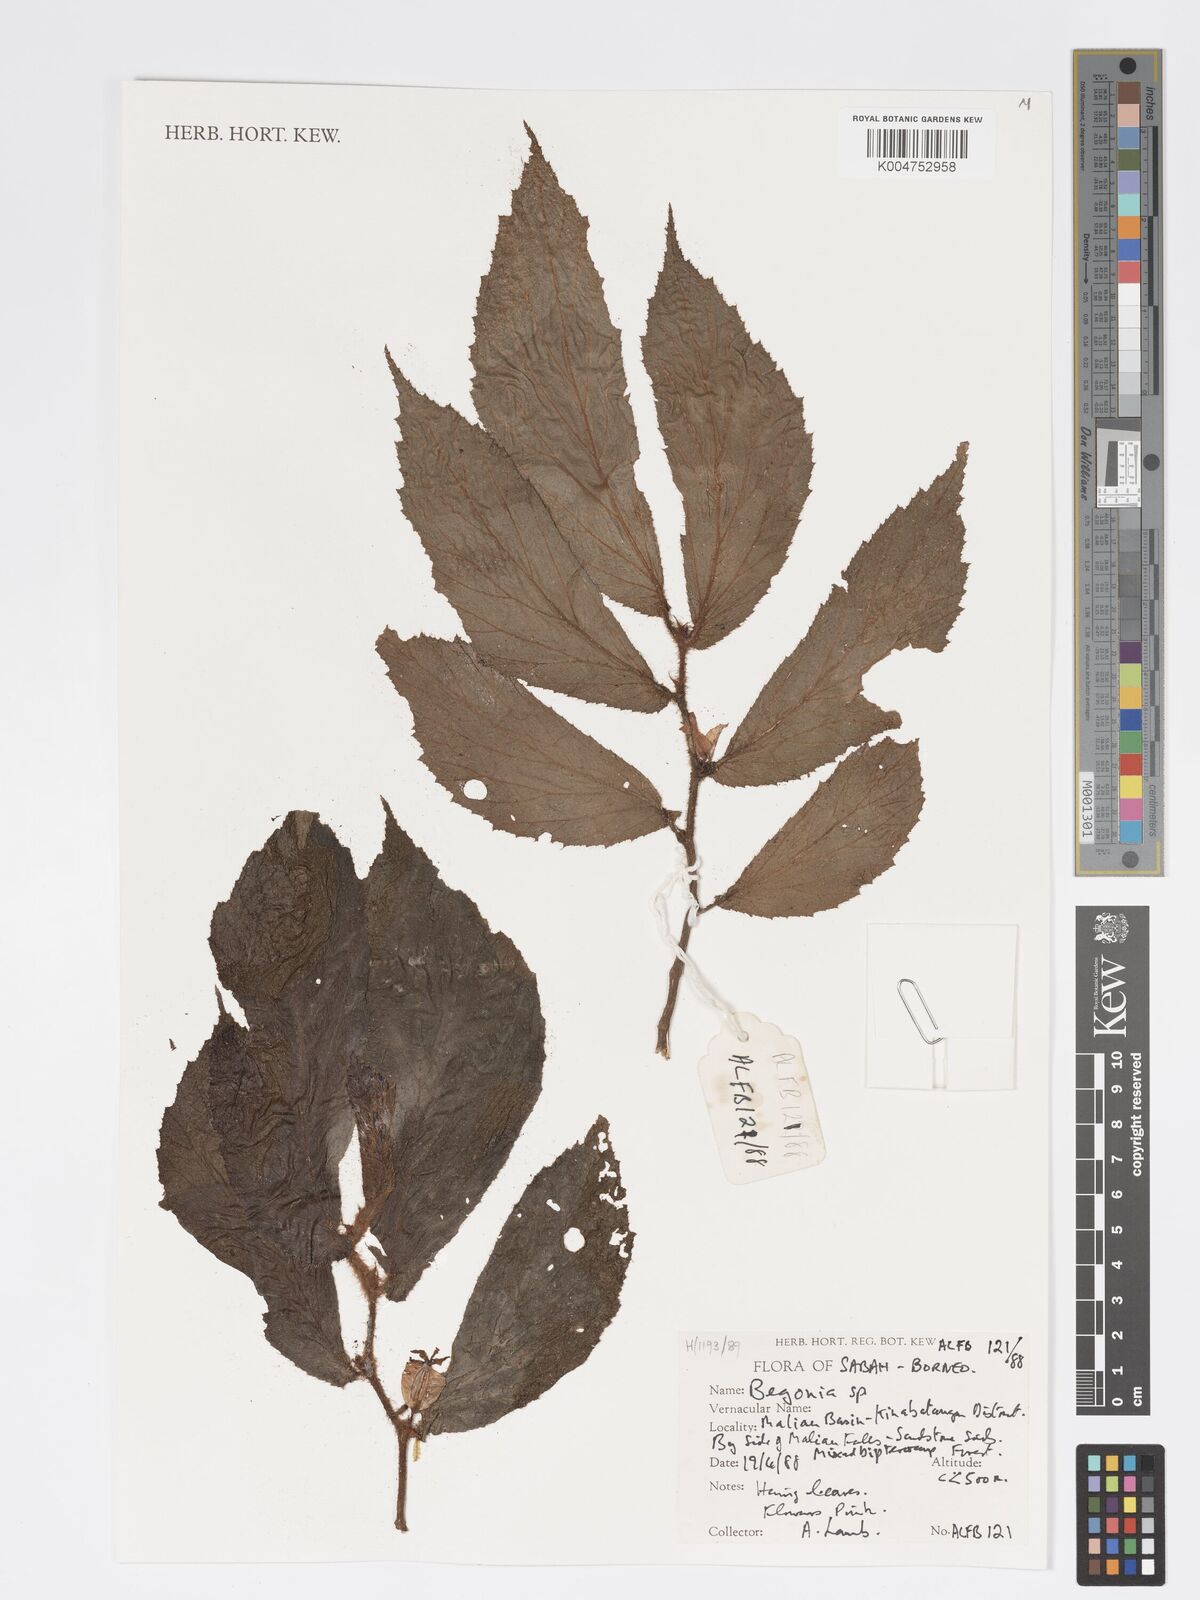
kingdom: Plantae
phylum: Tracheophyta
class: Magnoliopsida
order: Cucurbitales
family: Begoniaceae
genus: Begonia
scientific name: Begonia
